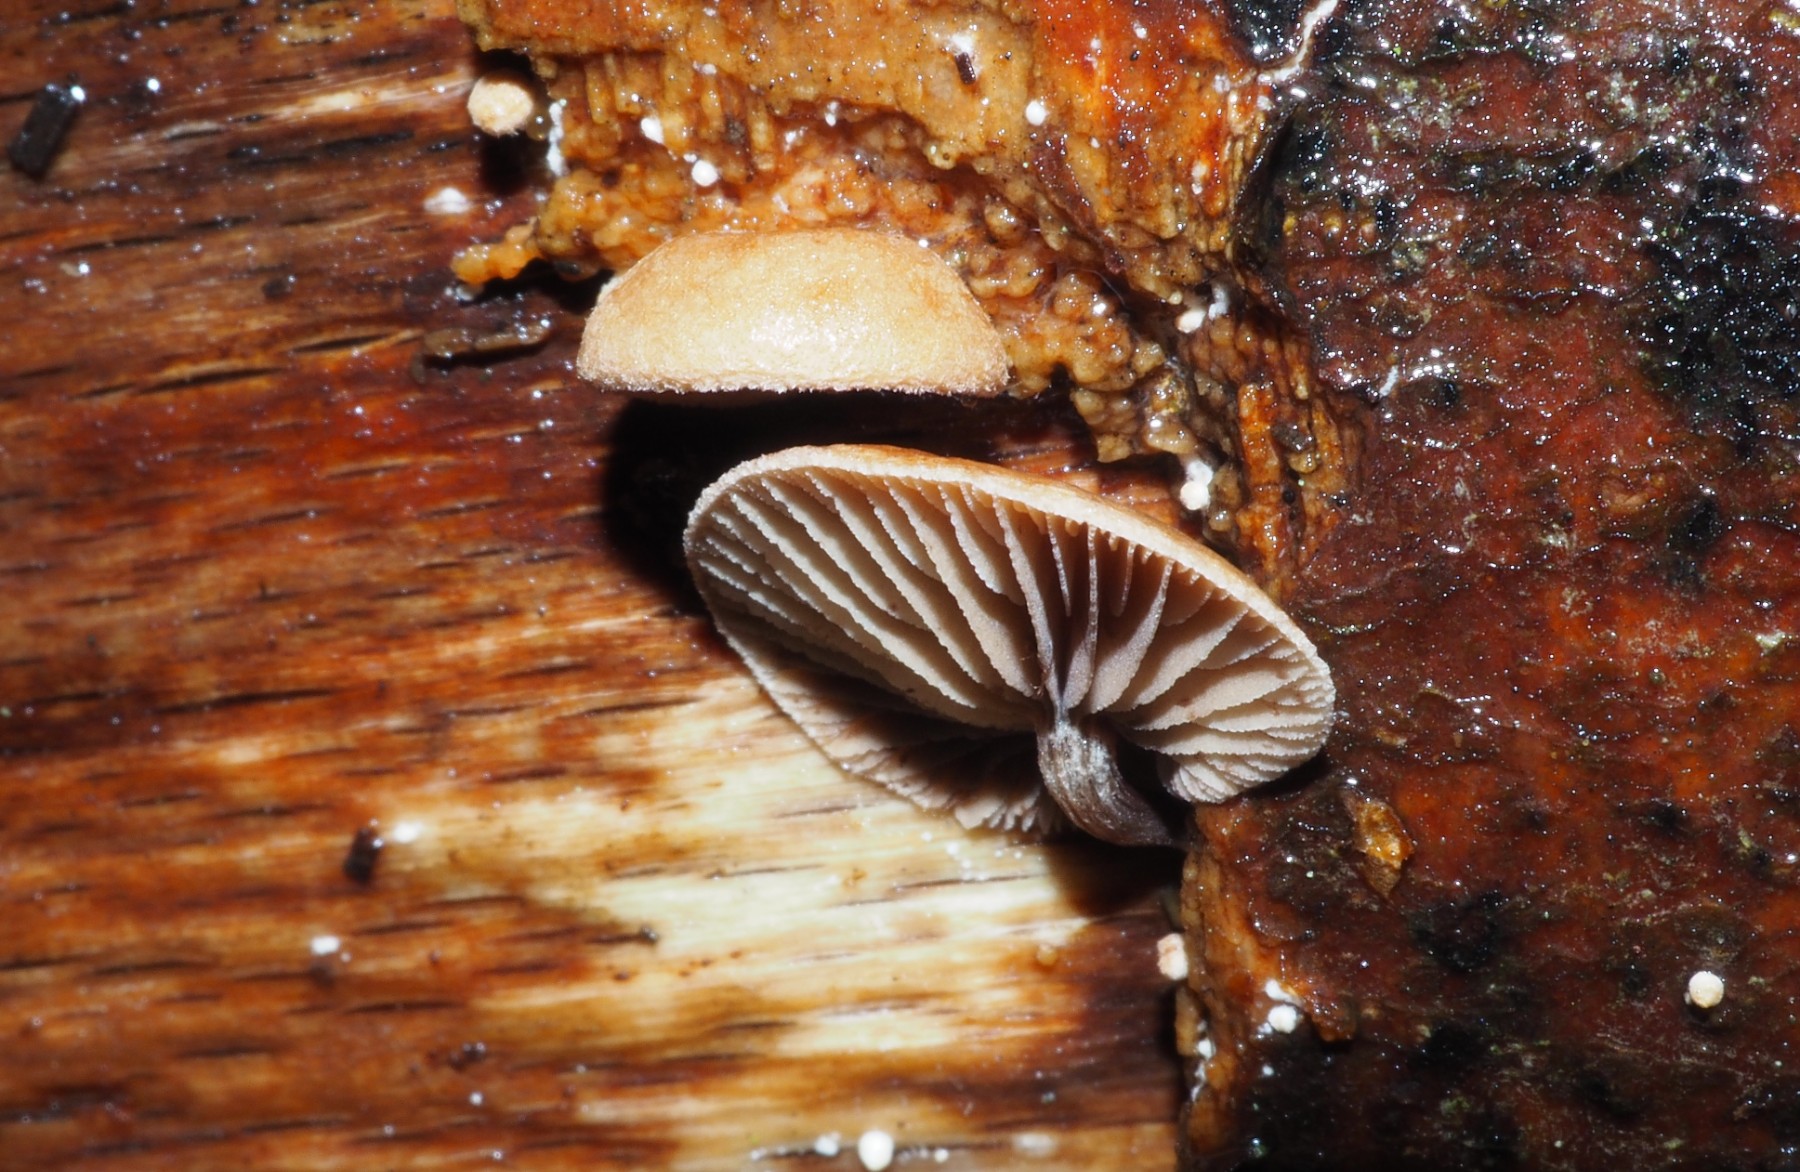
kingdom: Fungi
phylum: Basidiomycota
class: Agaricomycetes
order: Agaricales
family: Strophariaceae
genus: Deconica
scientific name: Deconica horizontalis
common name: ved-stråhat
